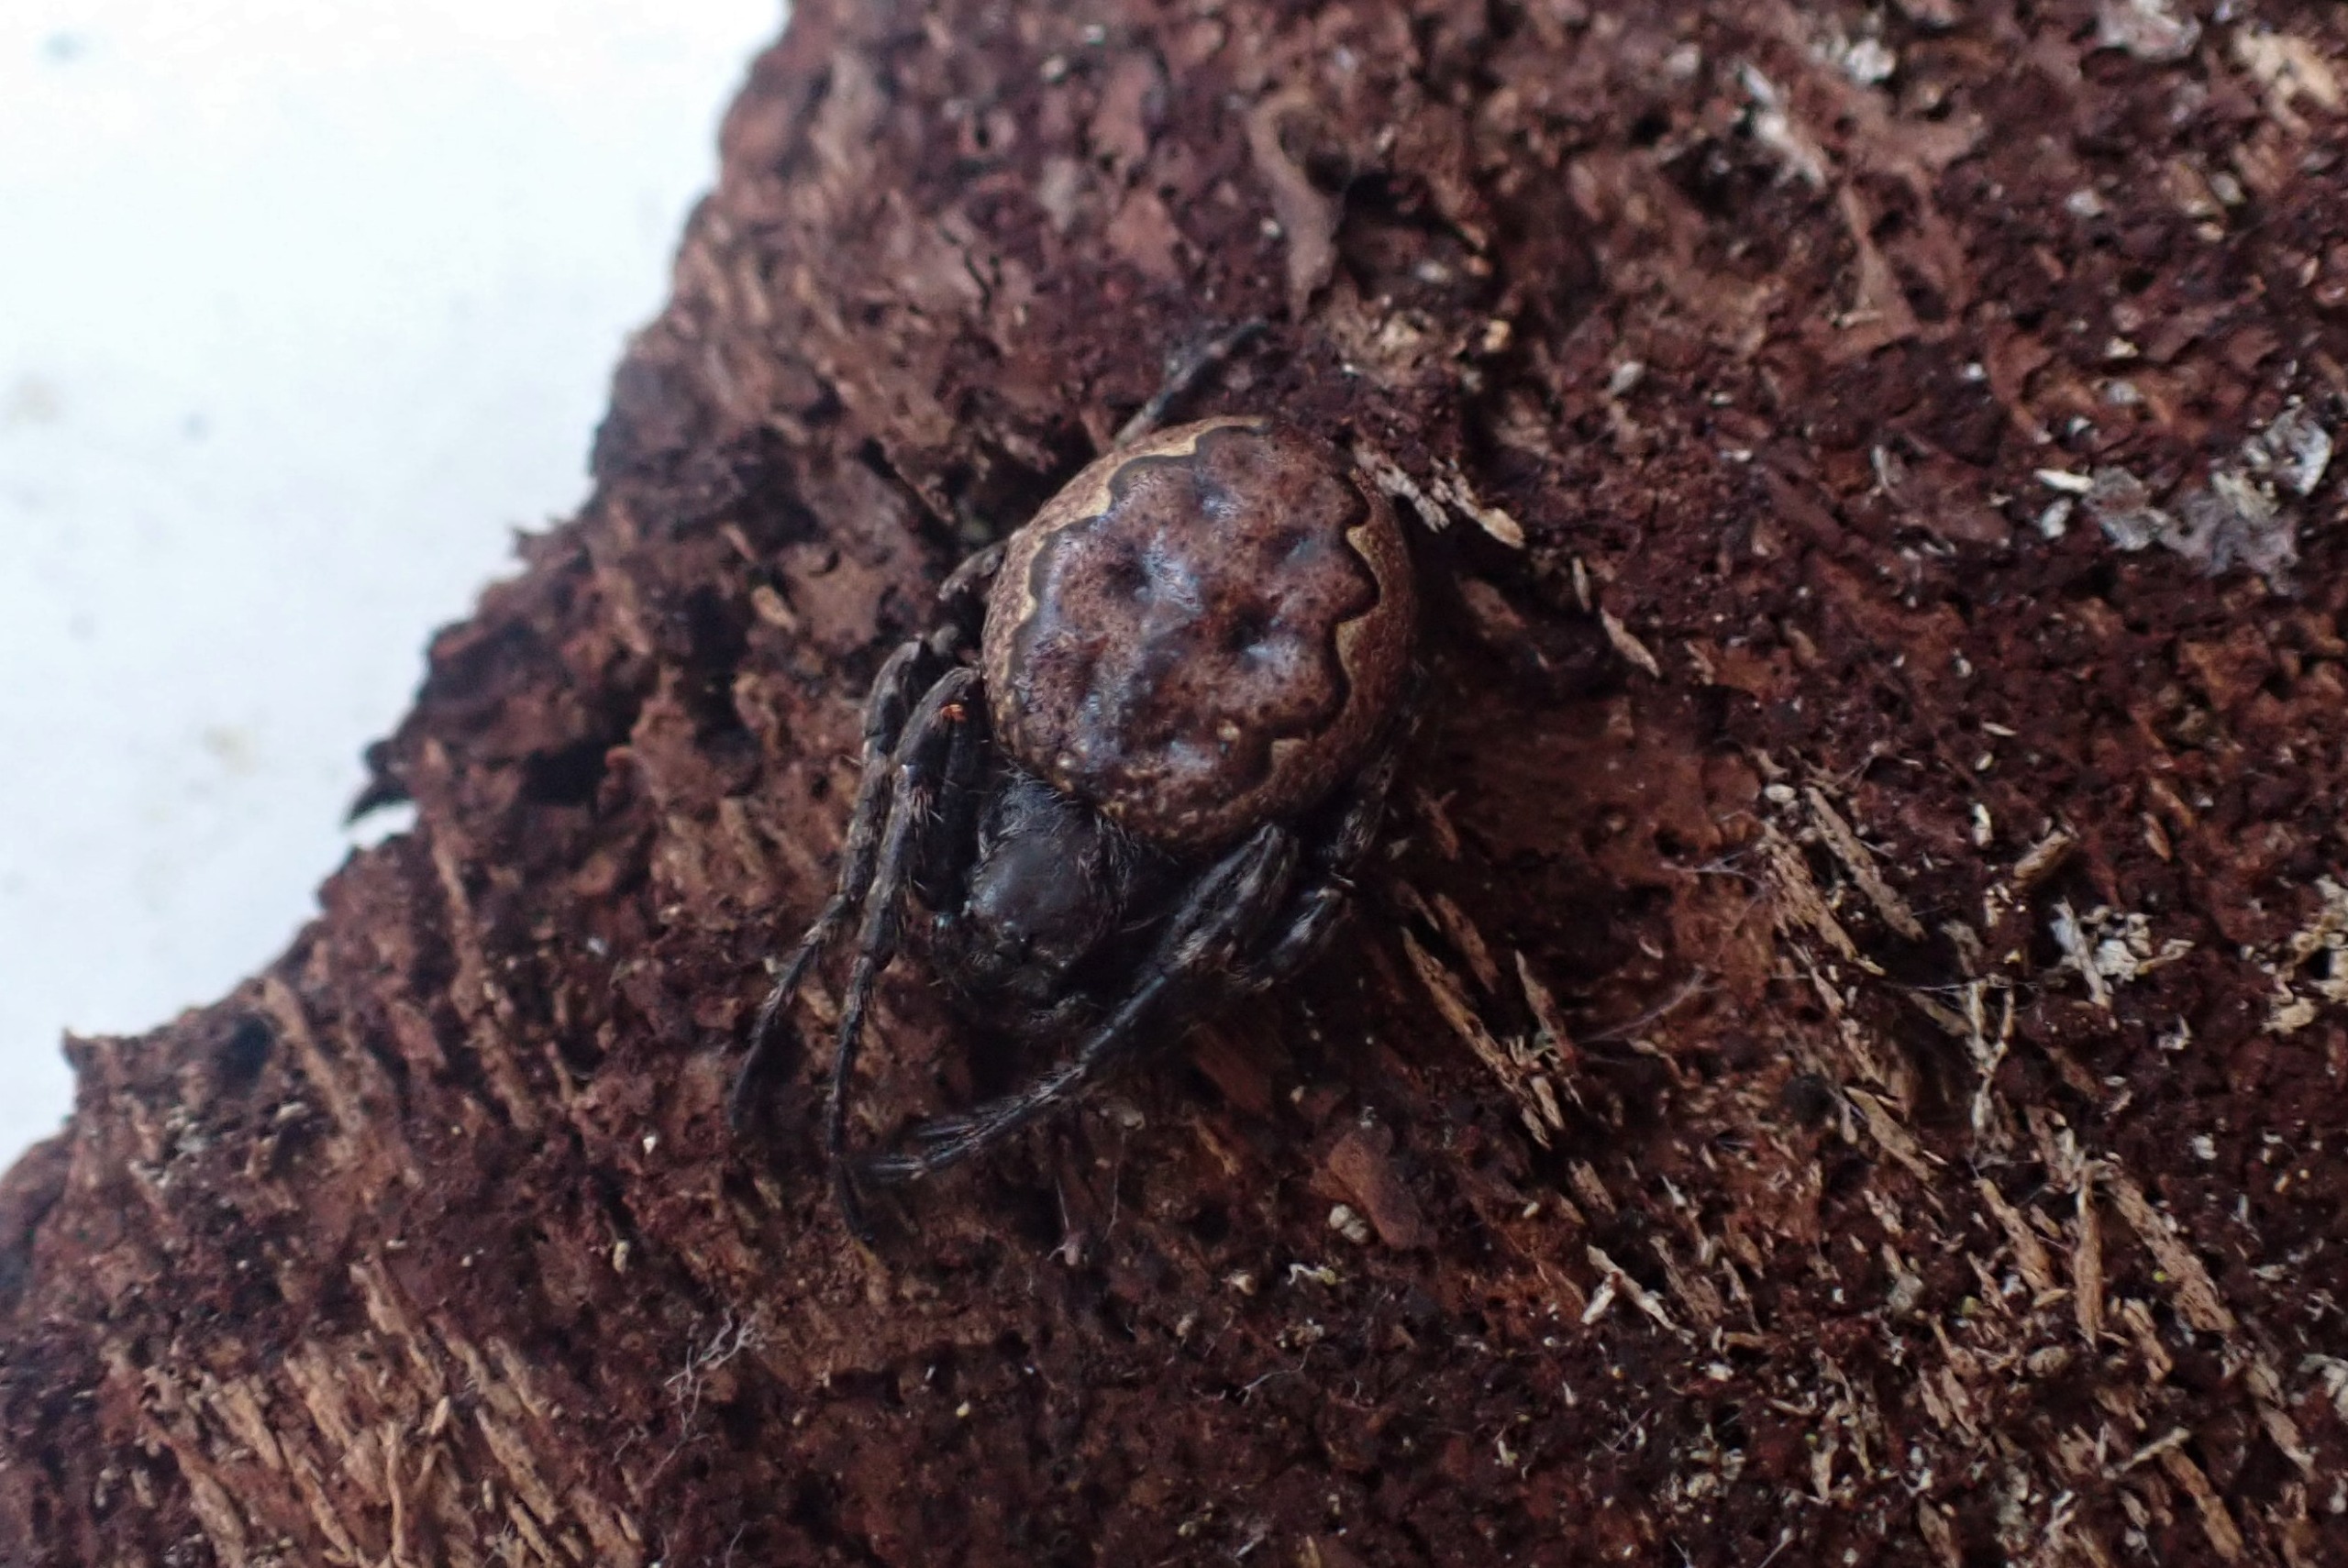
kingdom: Animalia
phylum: Arthropoda
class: Arachnida
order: Araneae
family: Araneidae
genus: Nuctenea
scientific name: Nuctenea umbratica
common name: Flad hjulspinder
